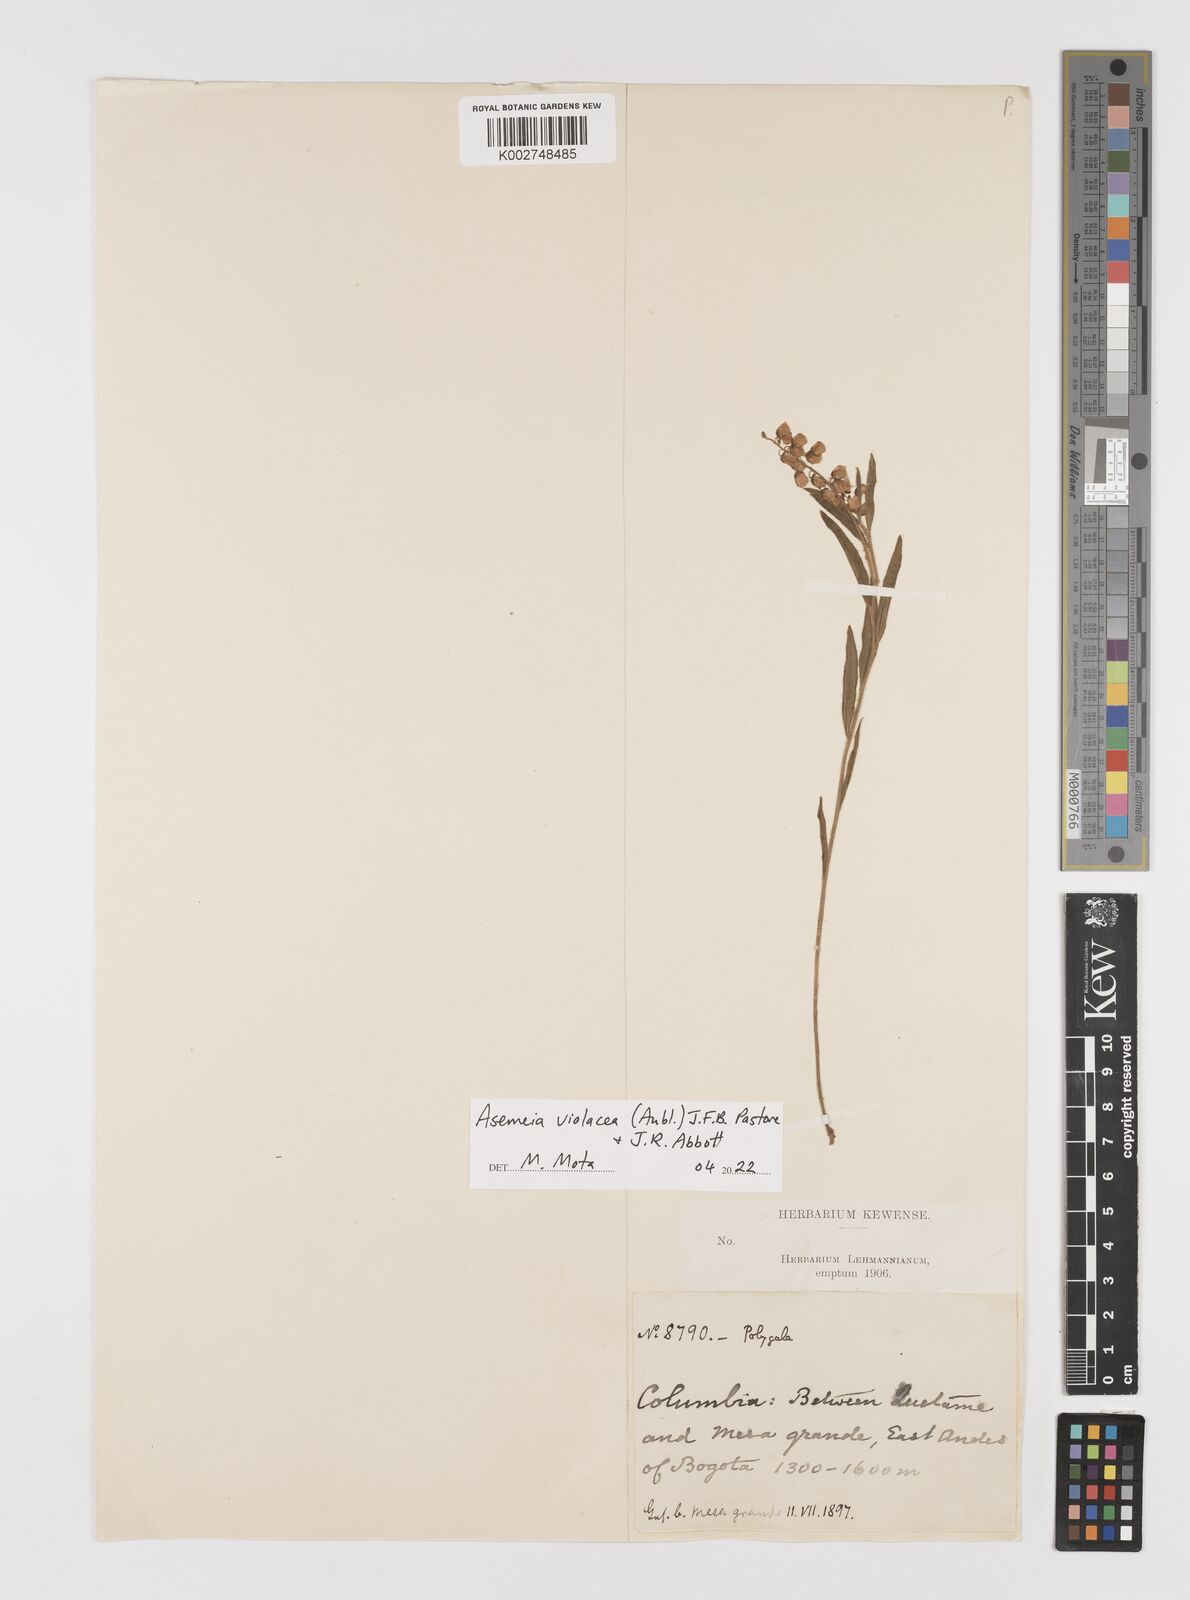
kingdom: Plantae
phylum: Tracheophyta
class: Magnoliopsida
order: Fabales
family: Polygalaceae
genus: Asemeia
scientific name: Asemeia violacea
